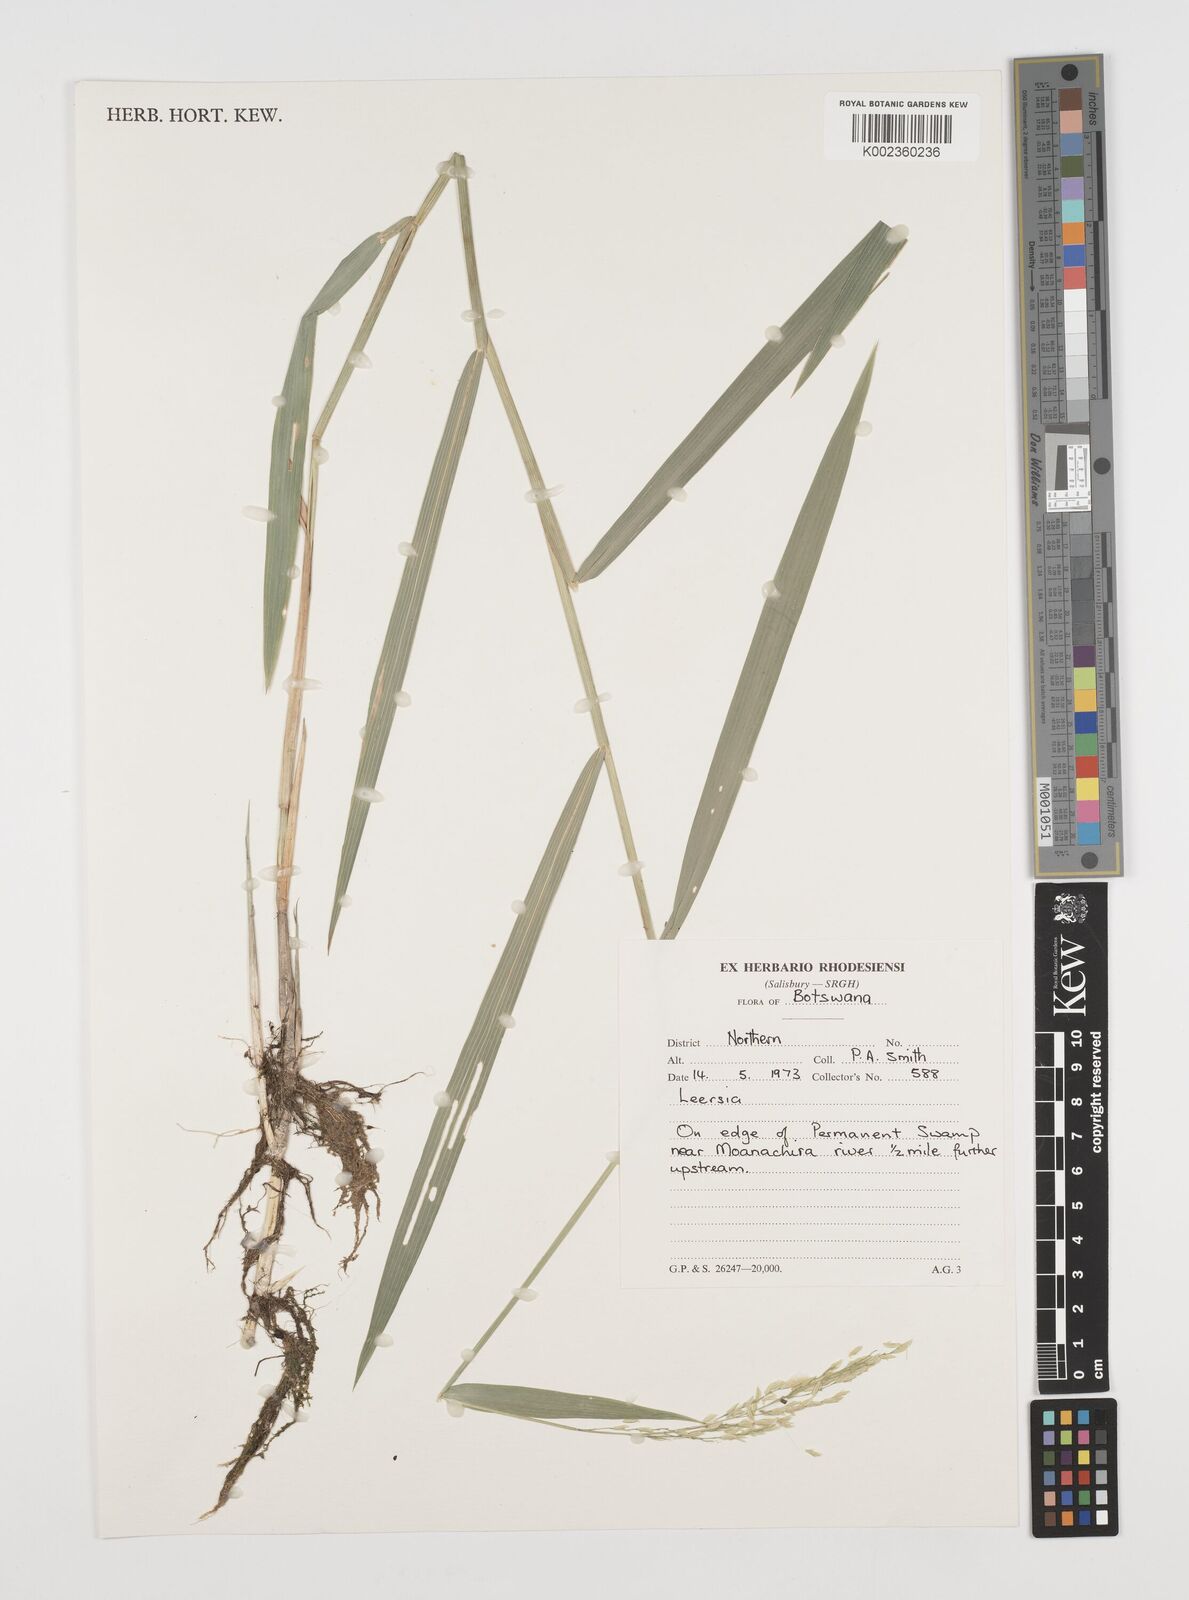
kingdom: Plantae
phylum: Tracheophyta
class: Liliopsida
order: Poales
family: Poaceae
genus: Leersia
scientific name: Leersia
